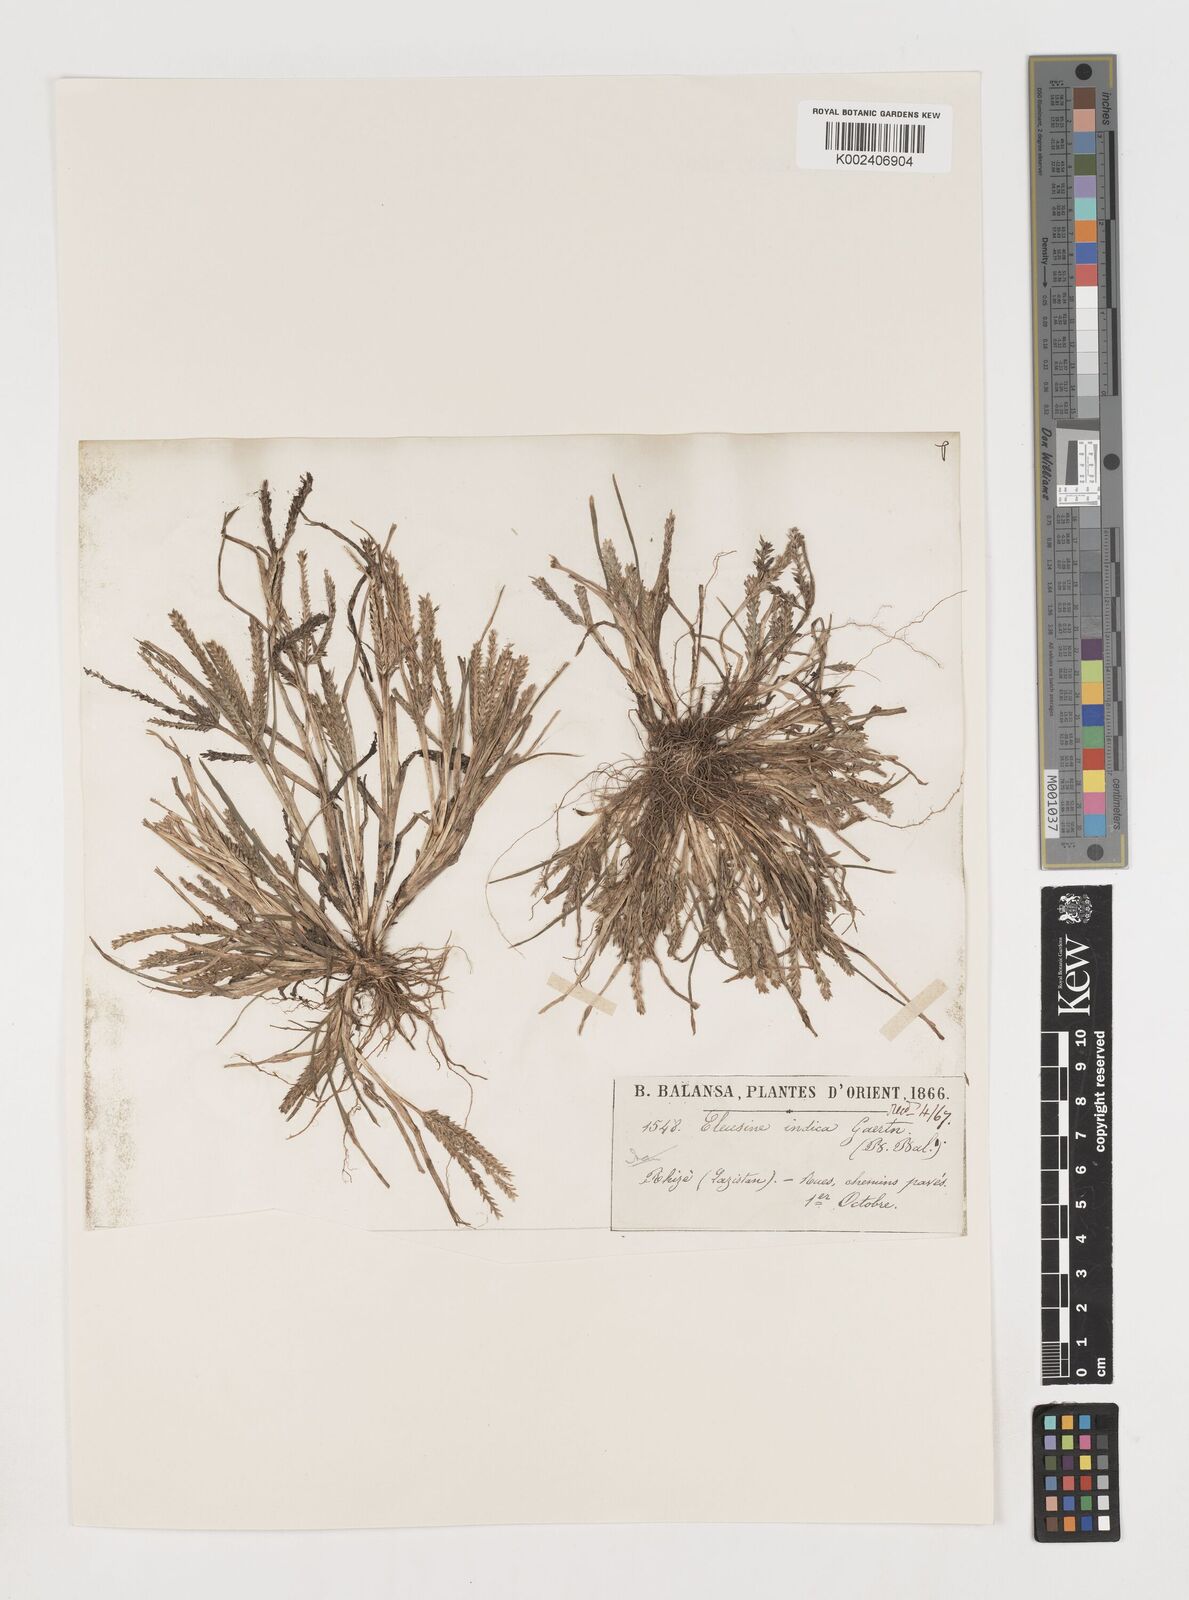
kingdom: Plantae
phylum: Tracheophyta
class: Liliopsida
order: Poales
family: Poaceae
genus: Eleusine
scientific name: Eleusine indica
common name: Yard-grass
